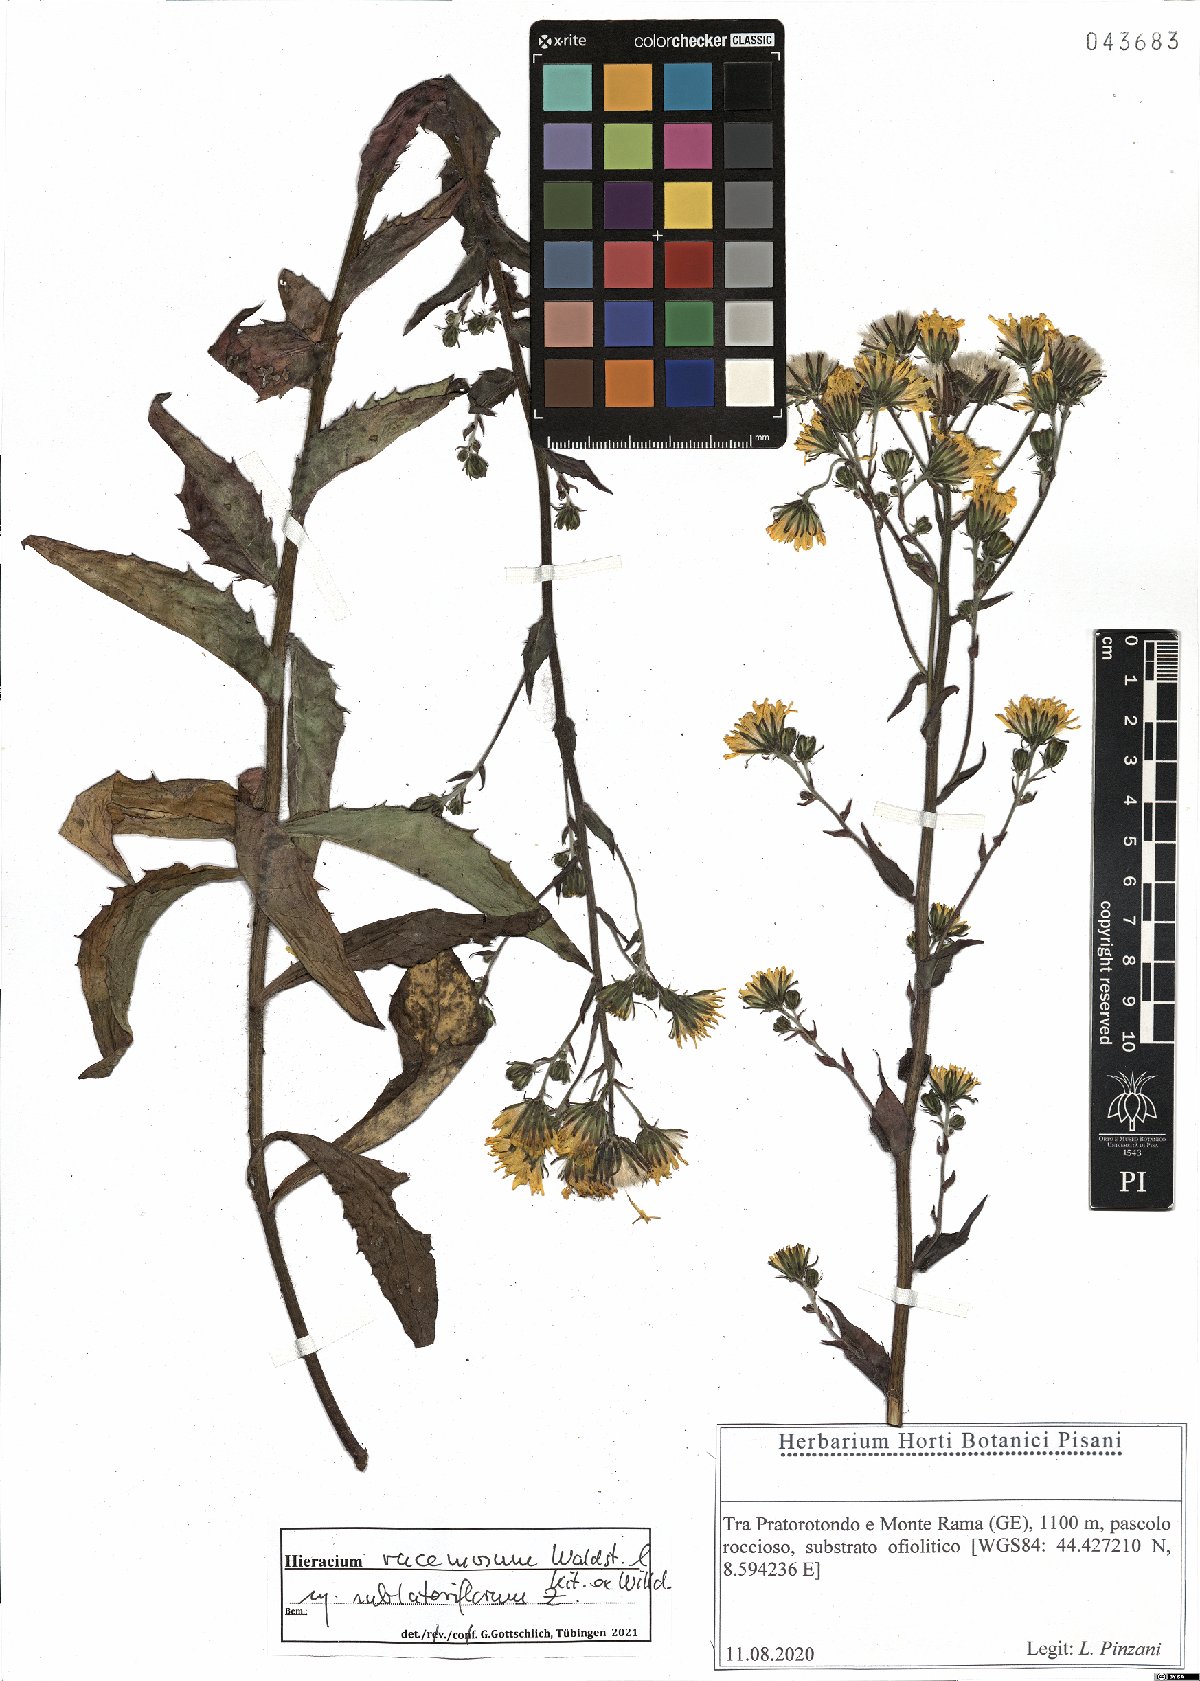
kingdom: Plantae
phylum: Tracheophyta
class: Magnoliopsida
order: Asterales
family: Asteraceae
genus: Hieracium
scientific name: Hieracium racemosum
